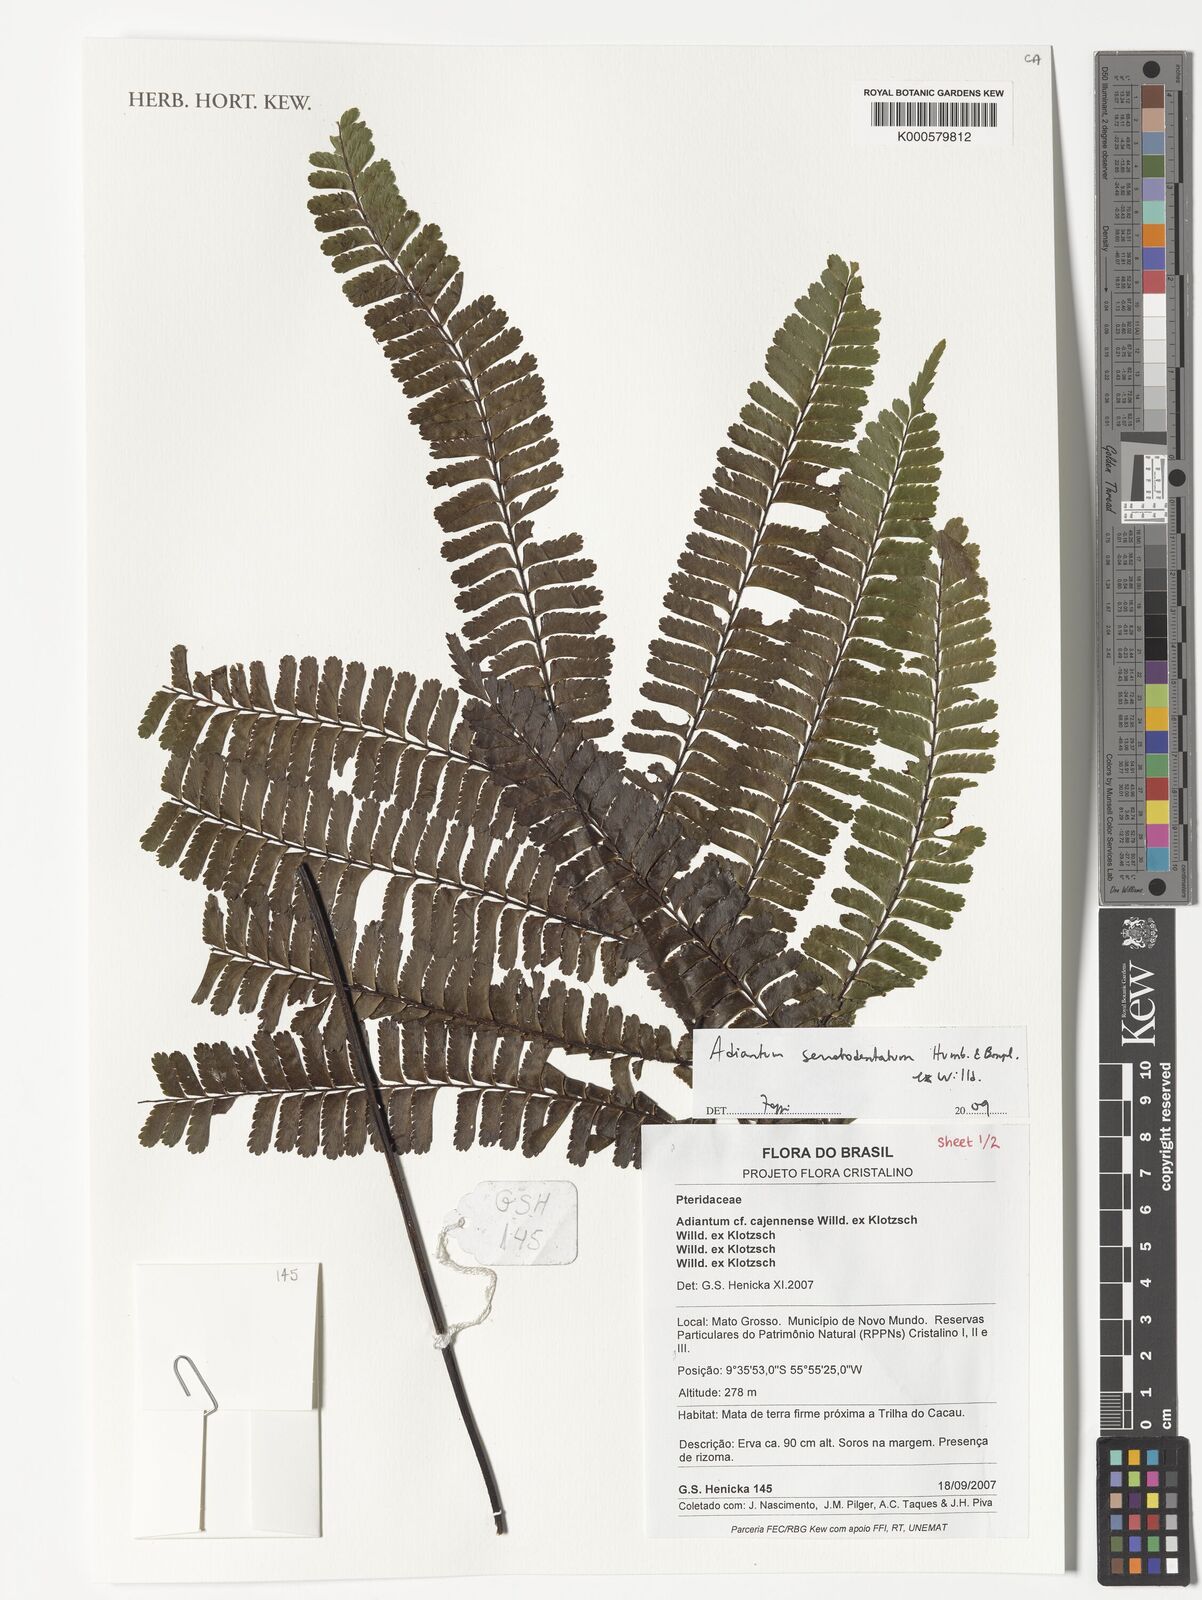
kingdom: Plantae
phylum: Tracheophyta
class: Polypodiopsida
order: Polypodiales
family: Pteridaceae
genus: Adiantum
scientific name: Adiantum serratodentatum
